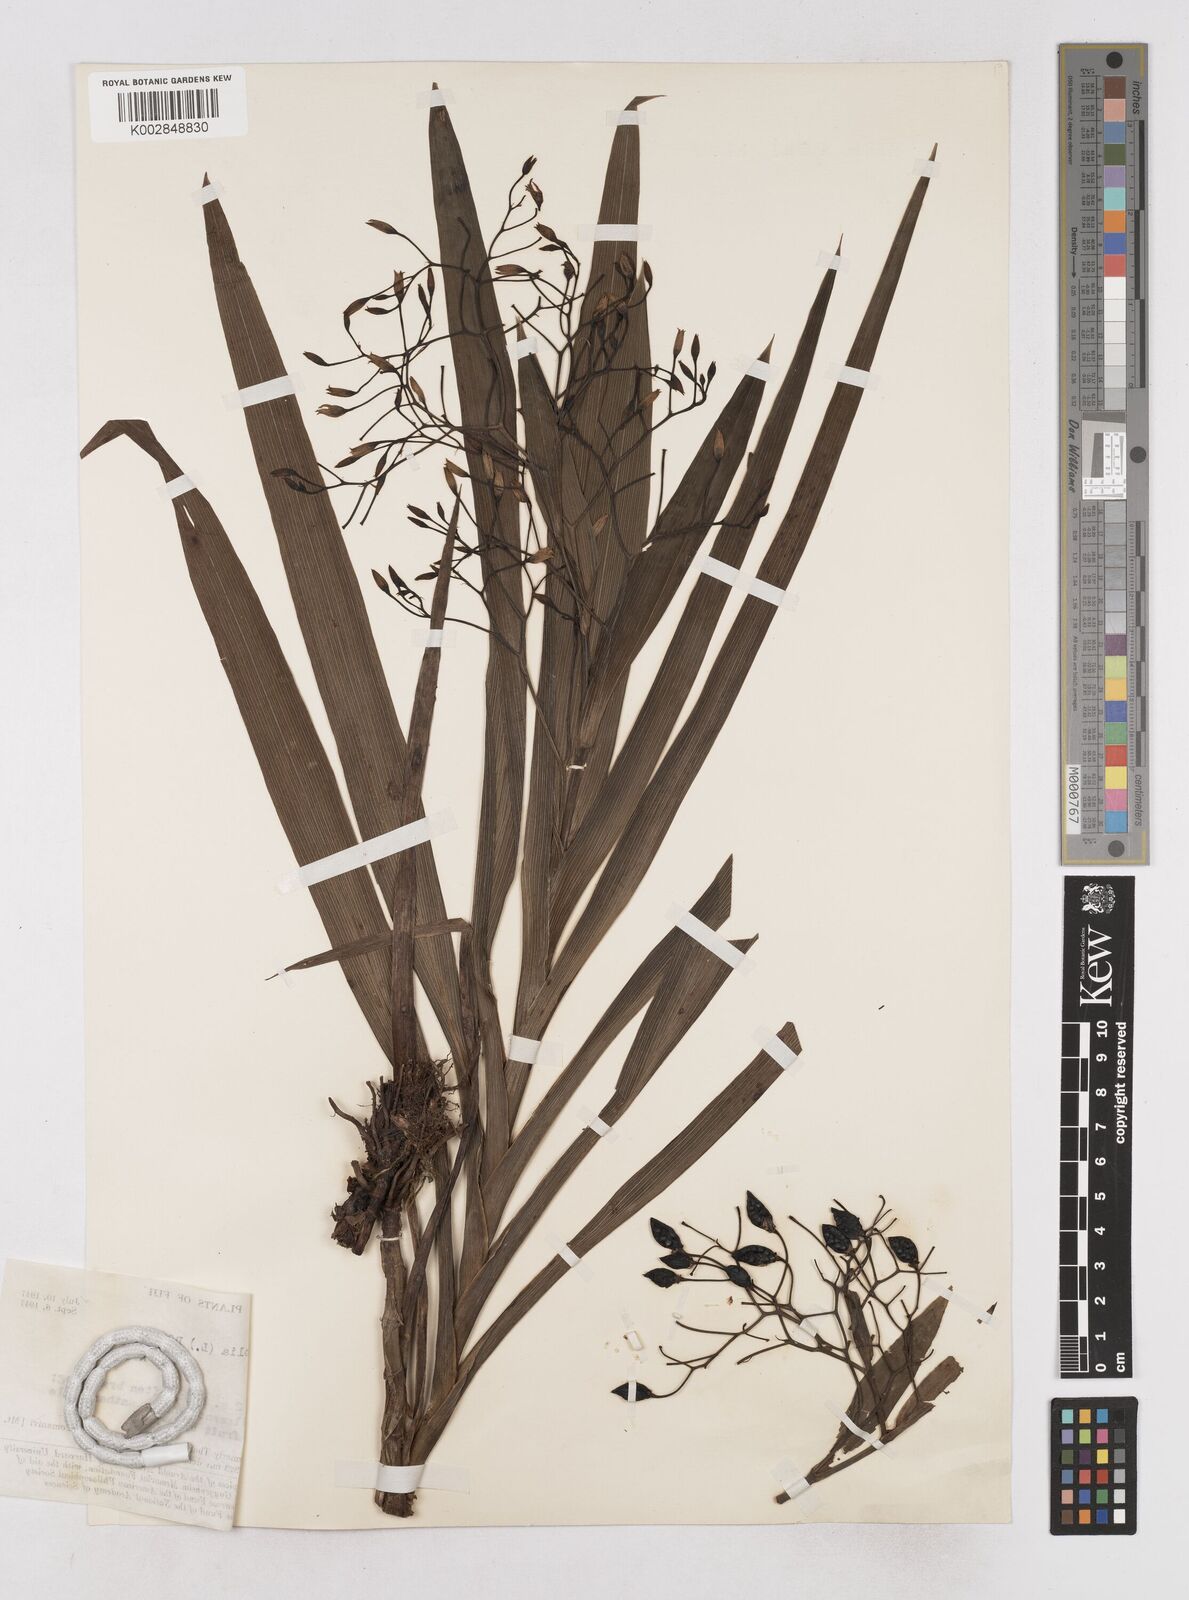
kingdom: Plantae
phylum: Tracheophyta
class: Liliopsida
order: Asparagales
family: Asphodelaceae
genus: Dianella
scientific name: Dianella ensifolia
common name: New zealand lilyplant
